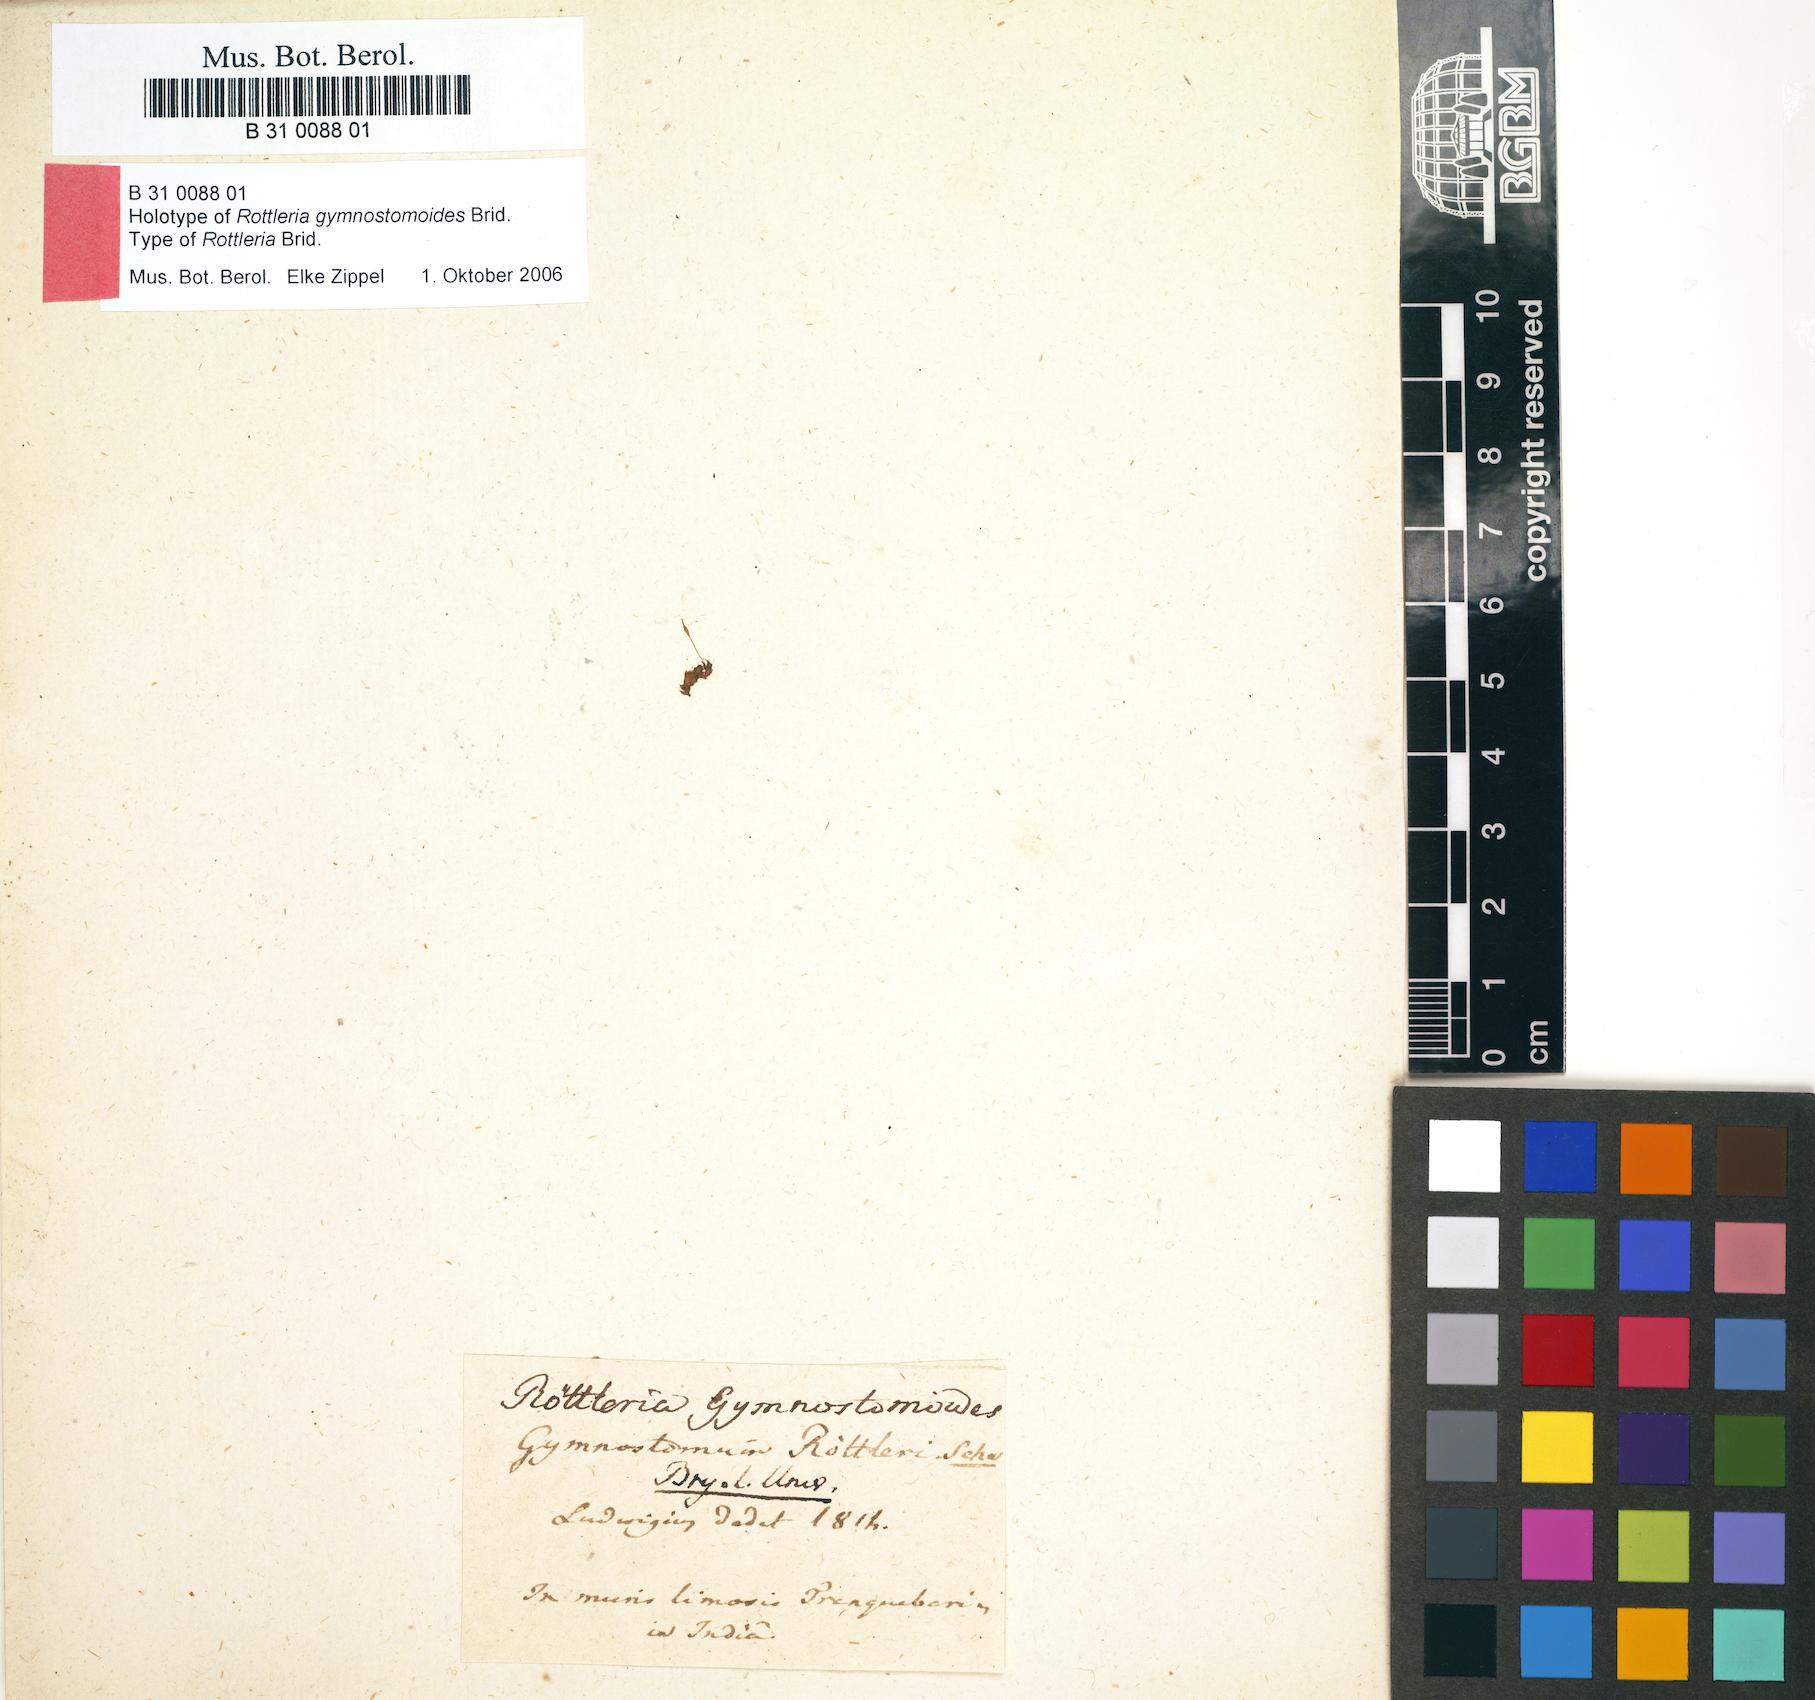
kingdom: Plantae
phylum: Bryophyta
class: Bryopsida
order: Funariales
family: Funariaceae
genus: Entosthodon
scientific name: Entosthodon rottleri
